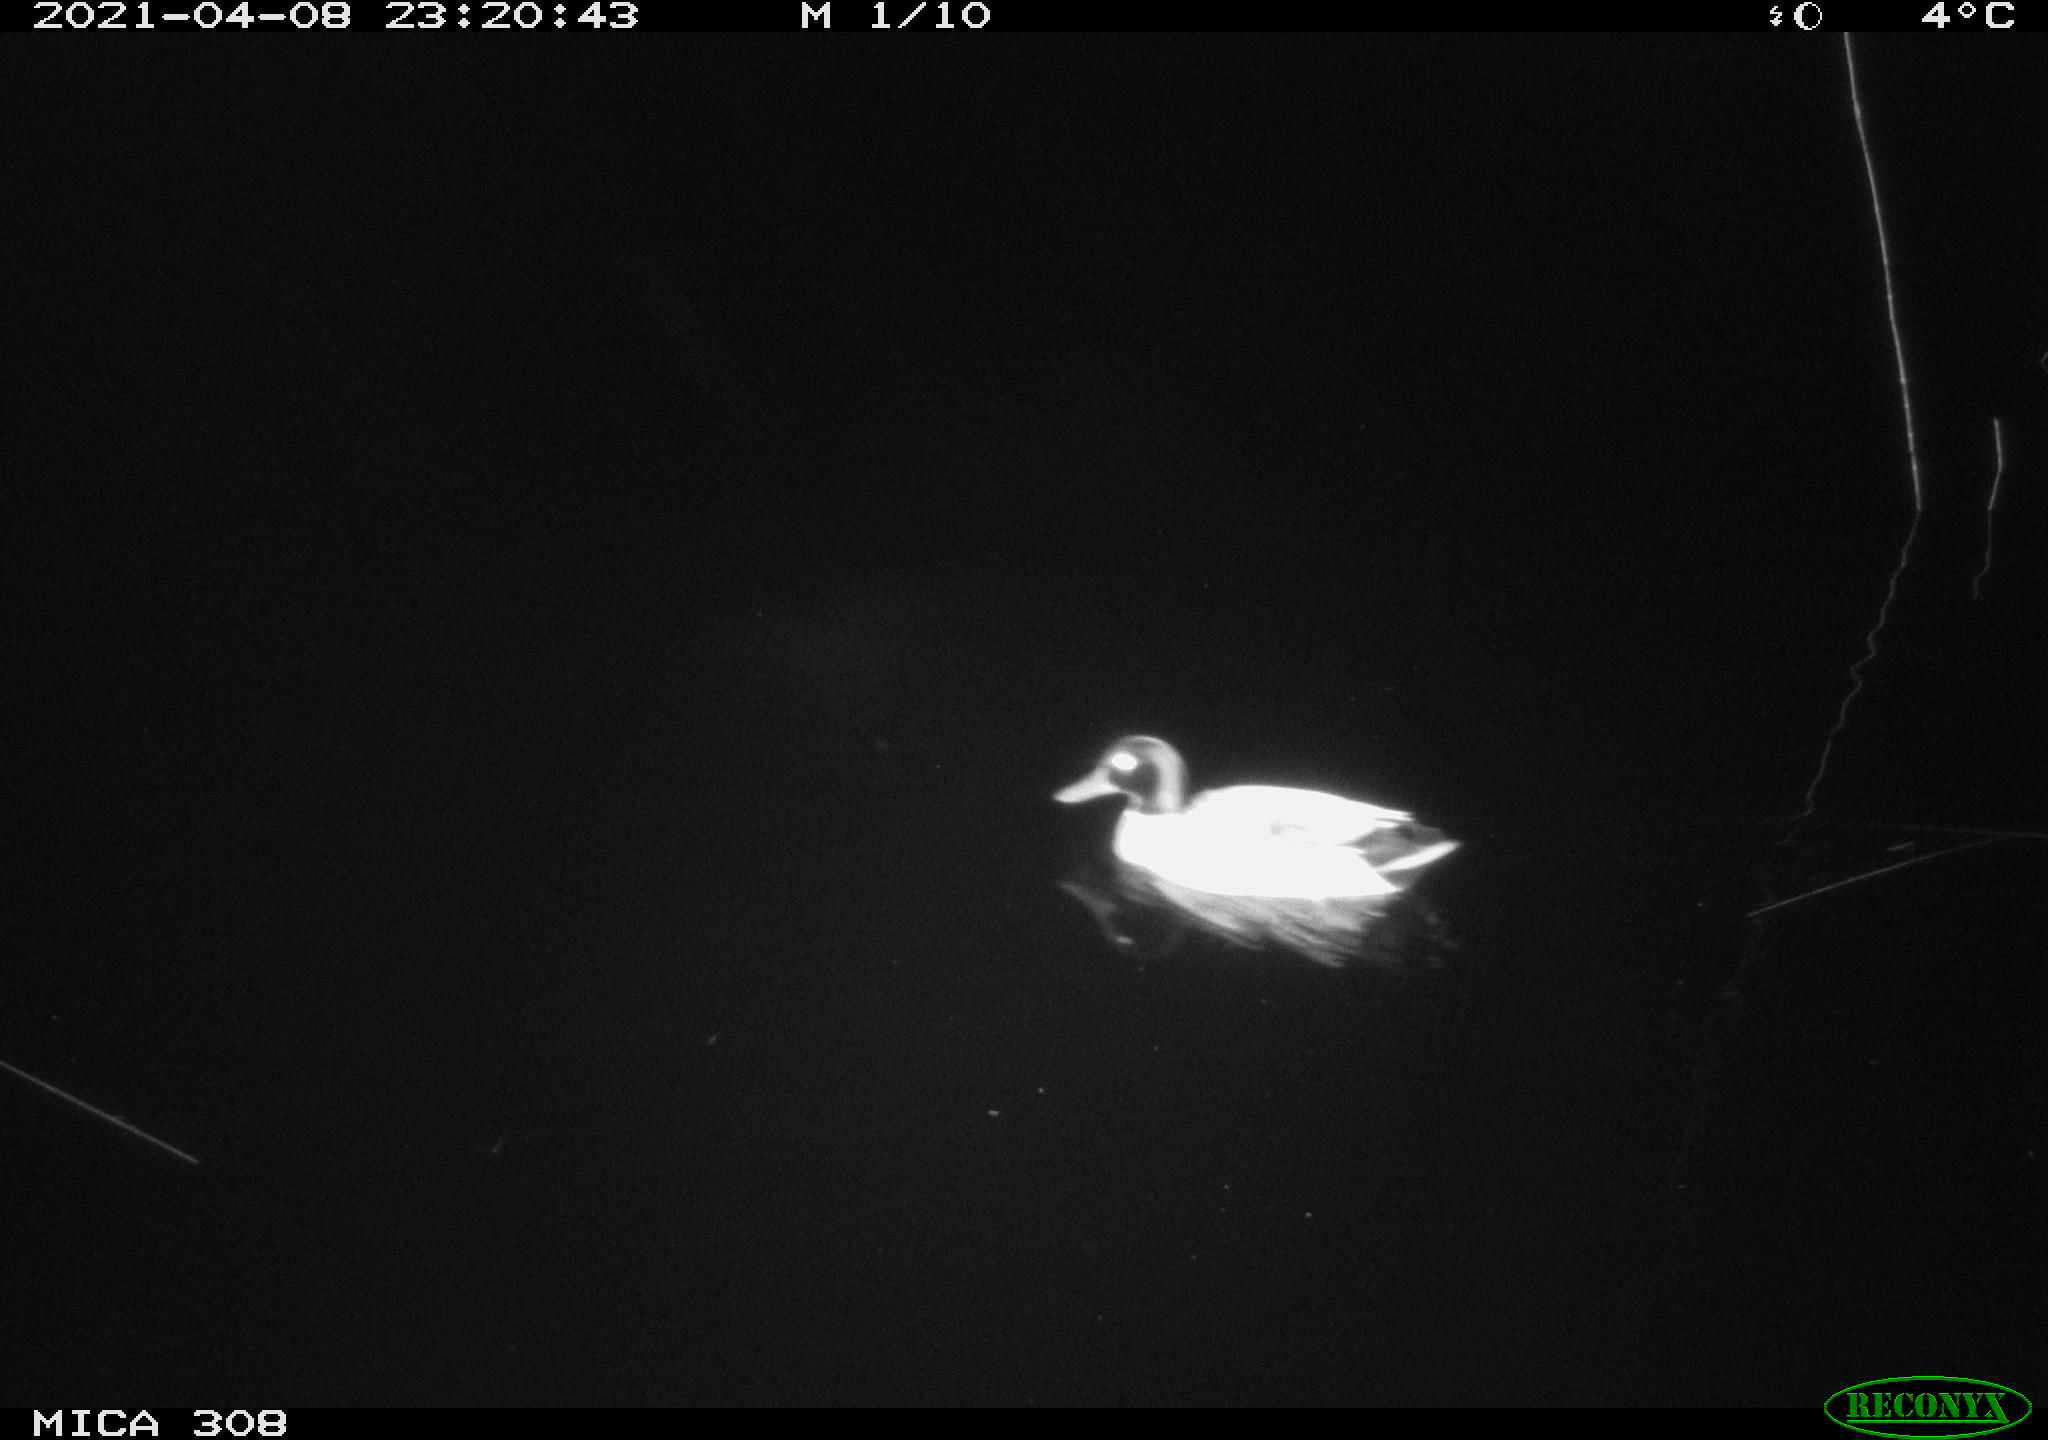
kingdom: Animalia
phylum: Chordata
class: Aves
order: Anseriformes
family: Anatidae
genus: Anas
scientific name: Anas platyrhynchos
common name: Mallard
